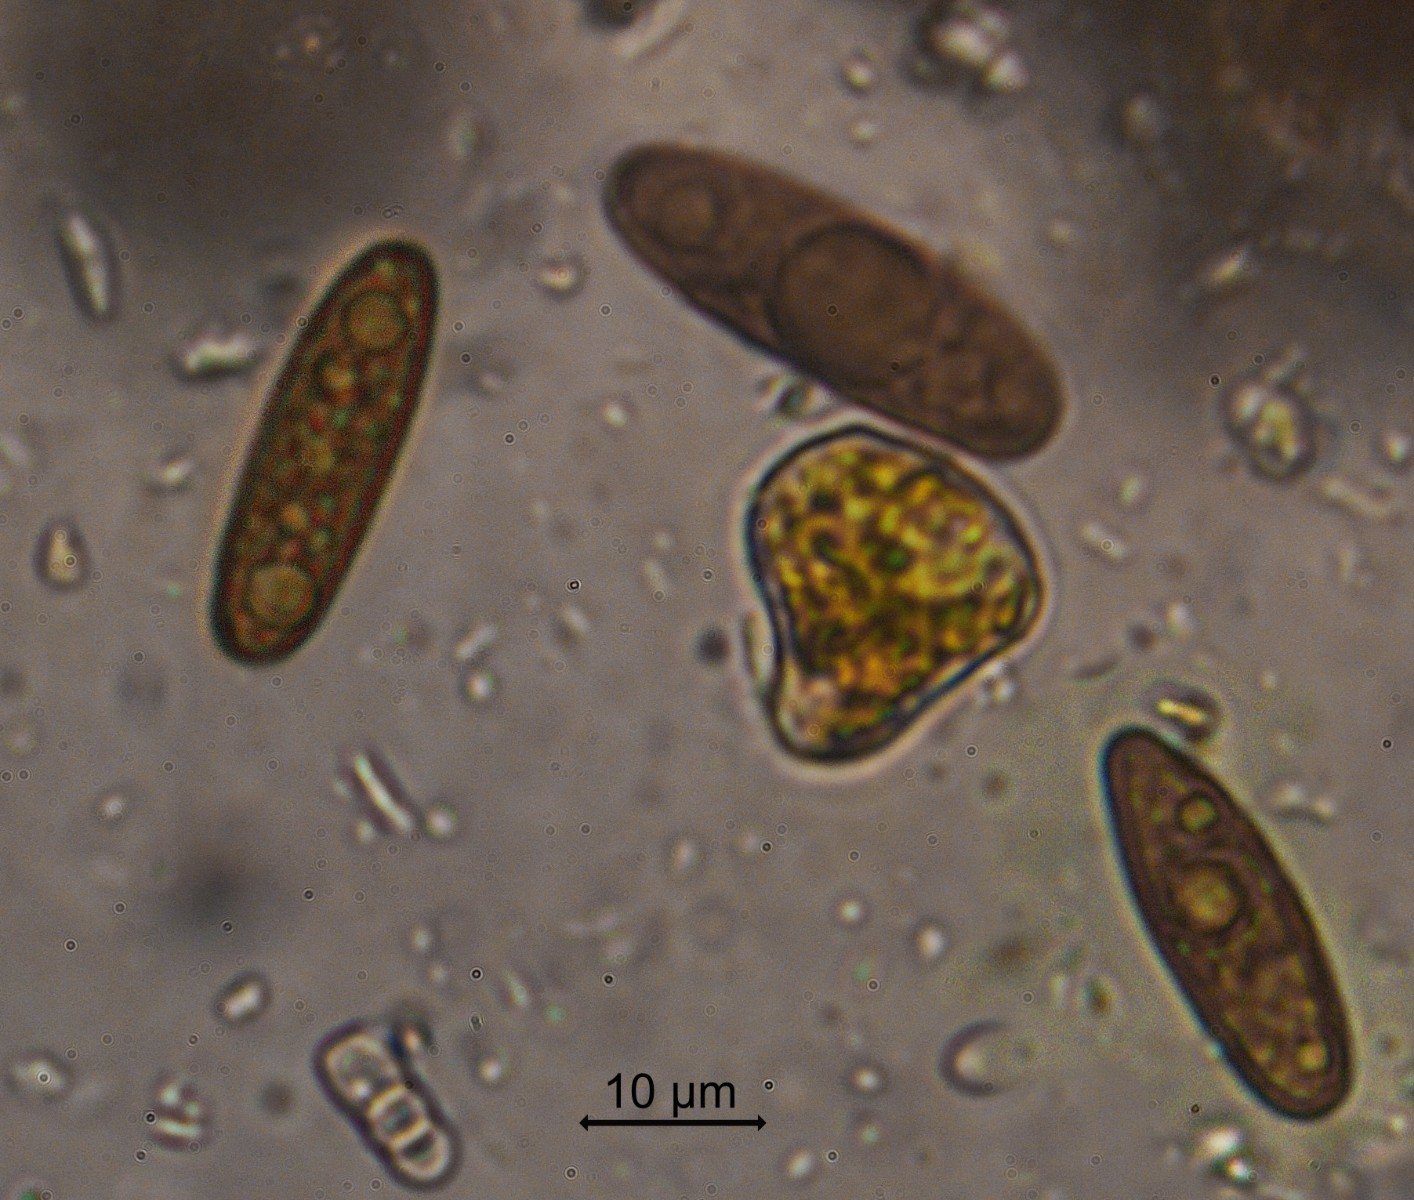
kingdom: Fungi
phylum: Ascomycota
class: Sordariomycetes
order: Xylariales
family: Xylariaceae
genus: Euepixylon
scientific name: Euepixylon udum
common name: ege-kuldyne
